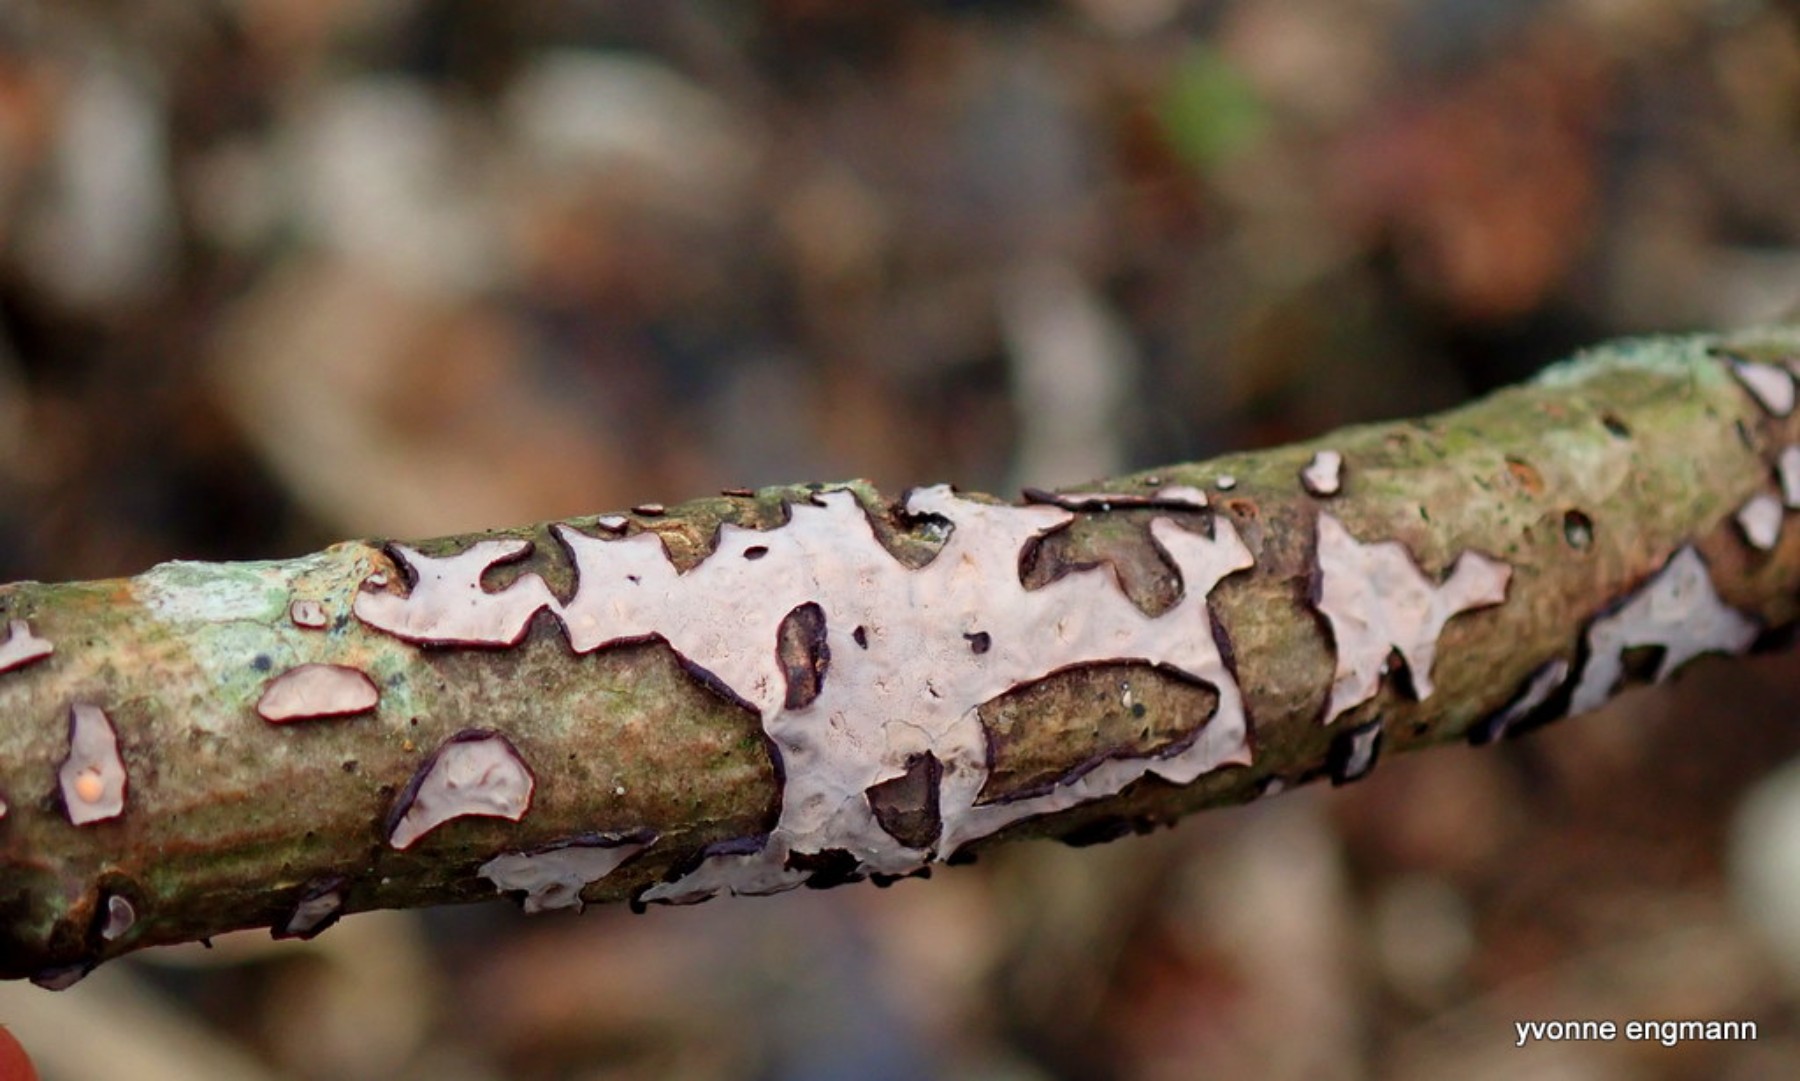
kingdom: Fungi
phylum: Basidiomycota
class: Agaricomycetes
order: Russulales
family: Peniophoraceae
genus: Peniophora
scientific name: Peniophora quercina
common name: ege-voksskind
